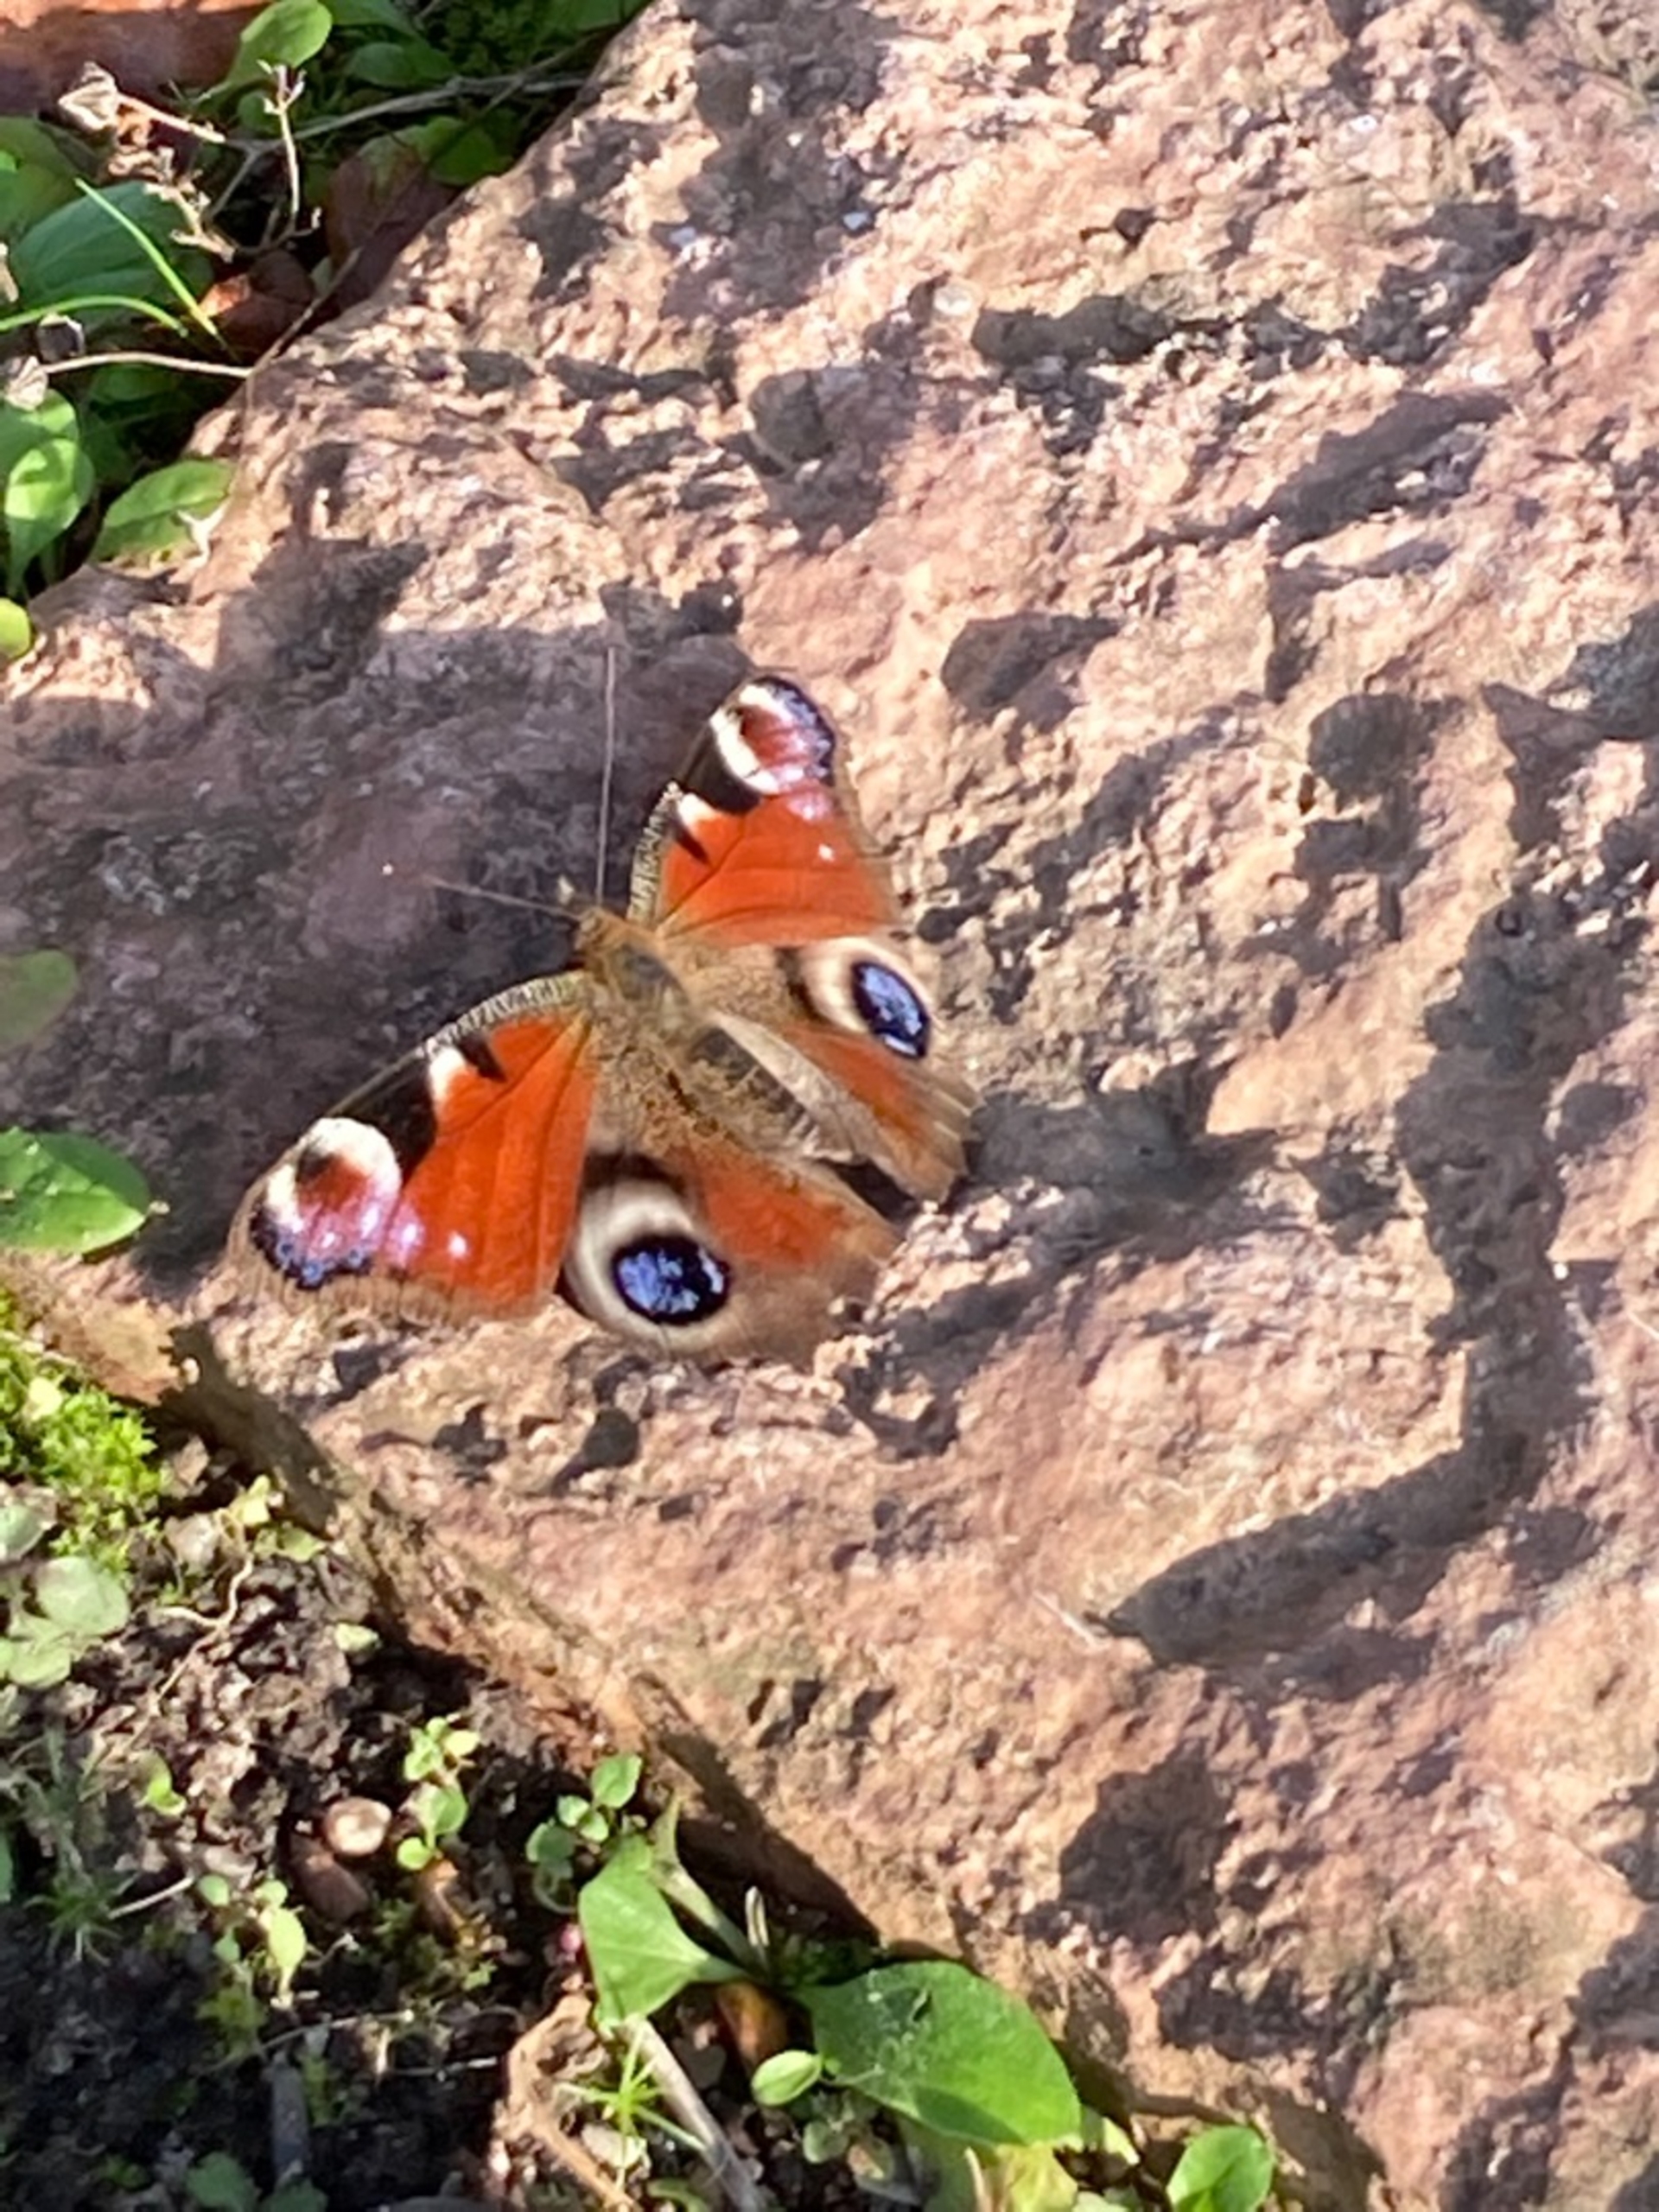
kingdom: Animalia
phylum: Arthropoda
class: Insecta
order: Lepidoptera
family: Nymphalidae
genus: Aglais
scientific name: Aglais io
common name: Dagpåfugleøje
